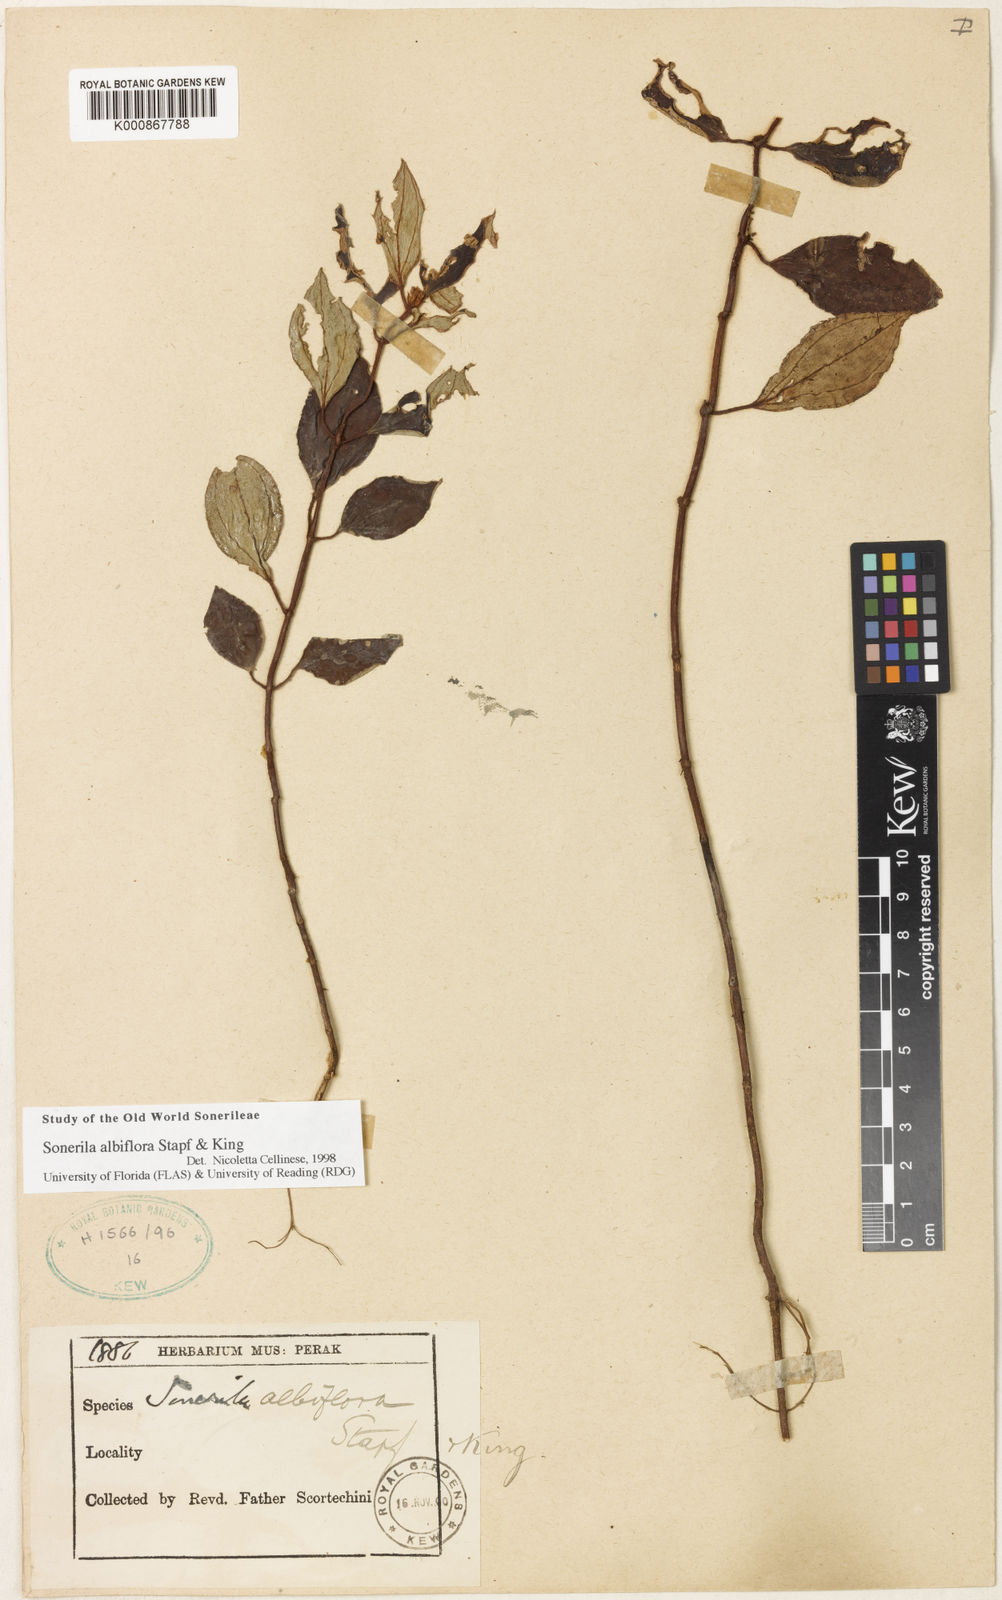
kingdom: Plantae
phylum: Tracheophyta
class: Magnoliopsida
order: Myrtales
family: Melastomataceae
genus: Sonerila
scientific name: Sonerila albiflora
